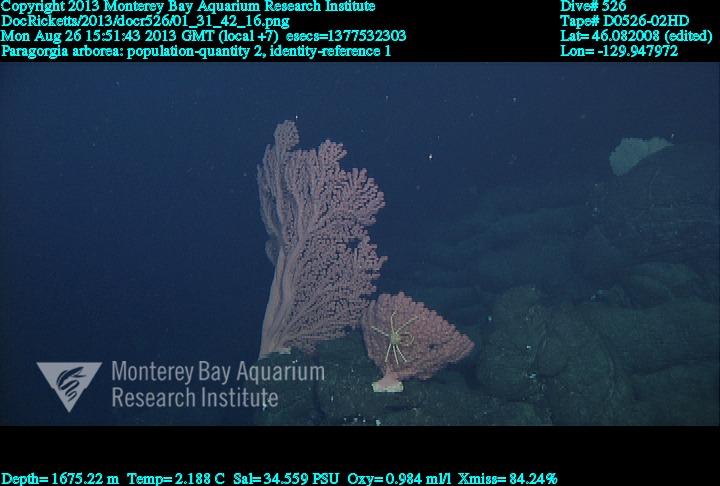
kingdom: Animalia
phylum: Cnidaria
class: Anthozoa
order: Scleralcyonacea
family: Coralliidae
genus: Paragorgia
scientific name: Paragorgia arborea
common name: Bubble gum coral
